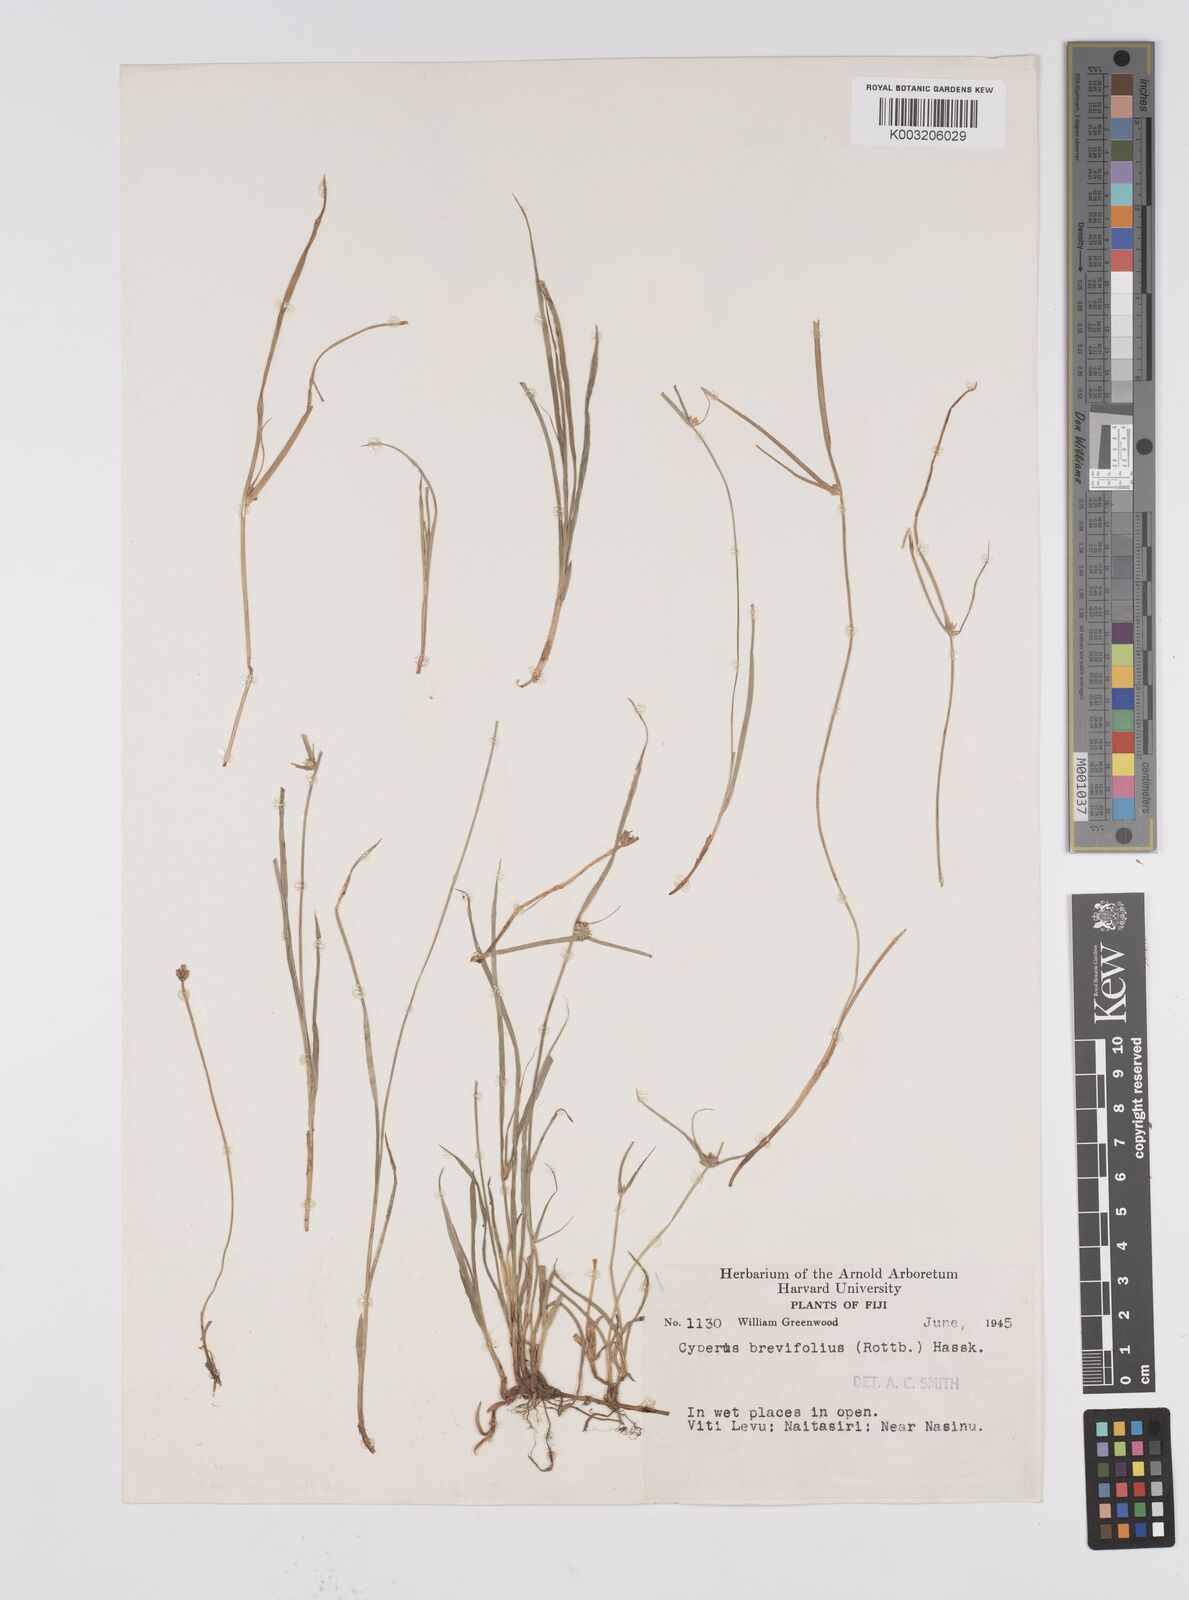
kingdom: Plantae
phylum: Tracheophyta
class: Liliopsida
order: Poales
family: Cyperaceae
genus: Cyperus
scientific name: Cyperus brevifolius
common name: Globe kyllinga
